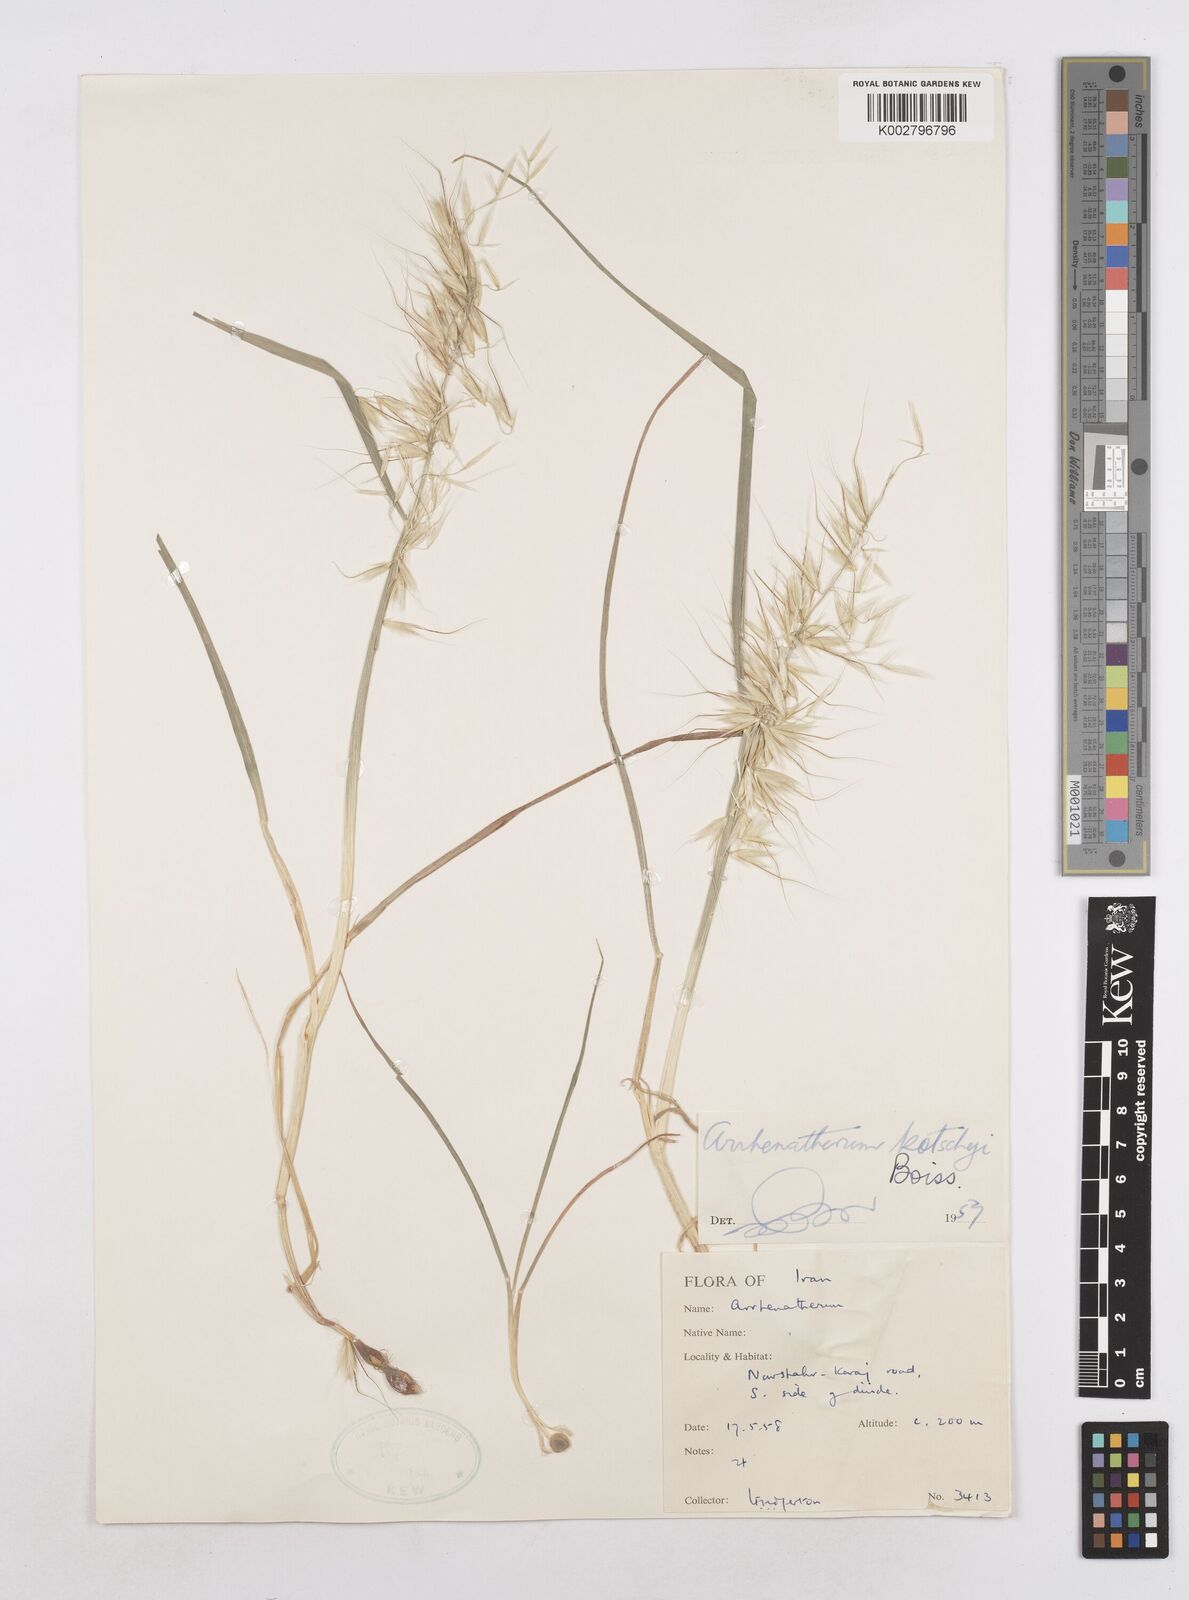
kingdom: Plantae
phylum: Tracheophyta
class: Liliopsida
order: Poales
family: Poaceae
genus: Arrhenatherum
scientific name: Arrhenatherum kotschyi
